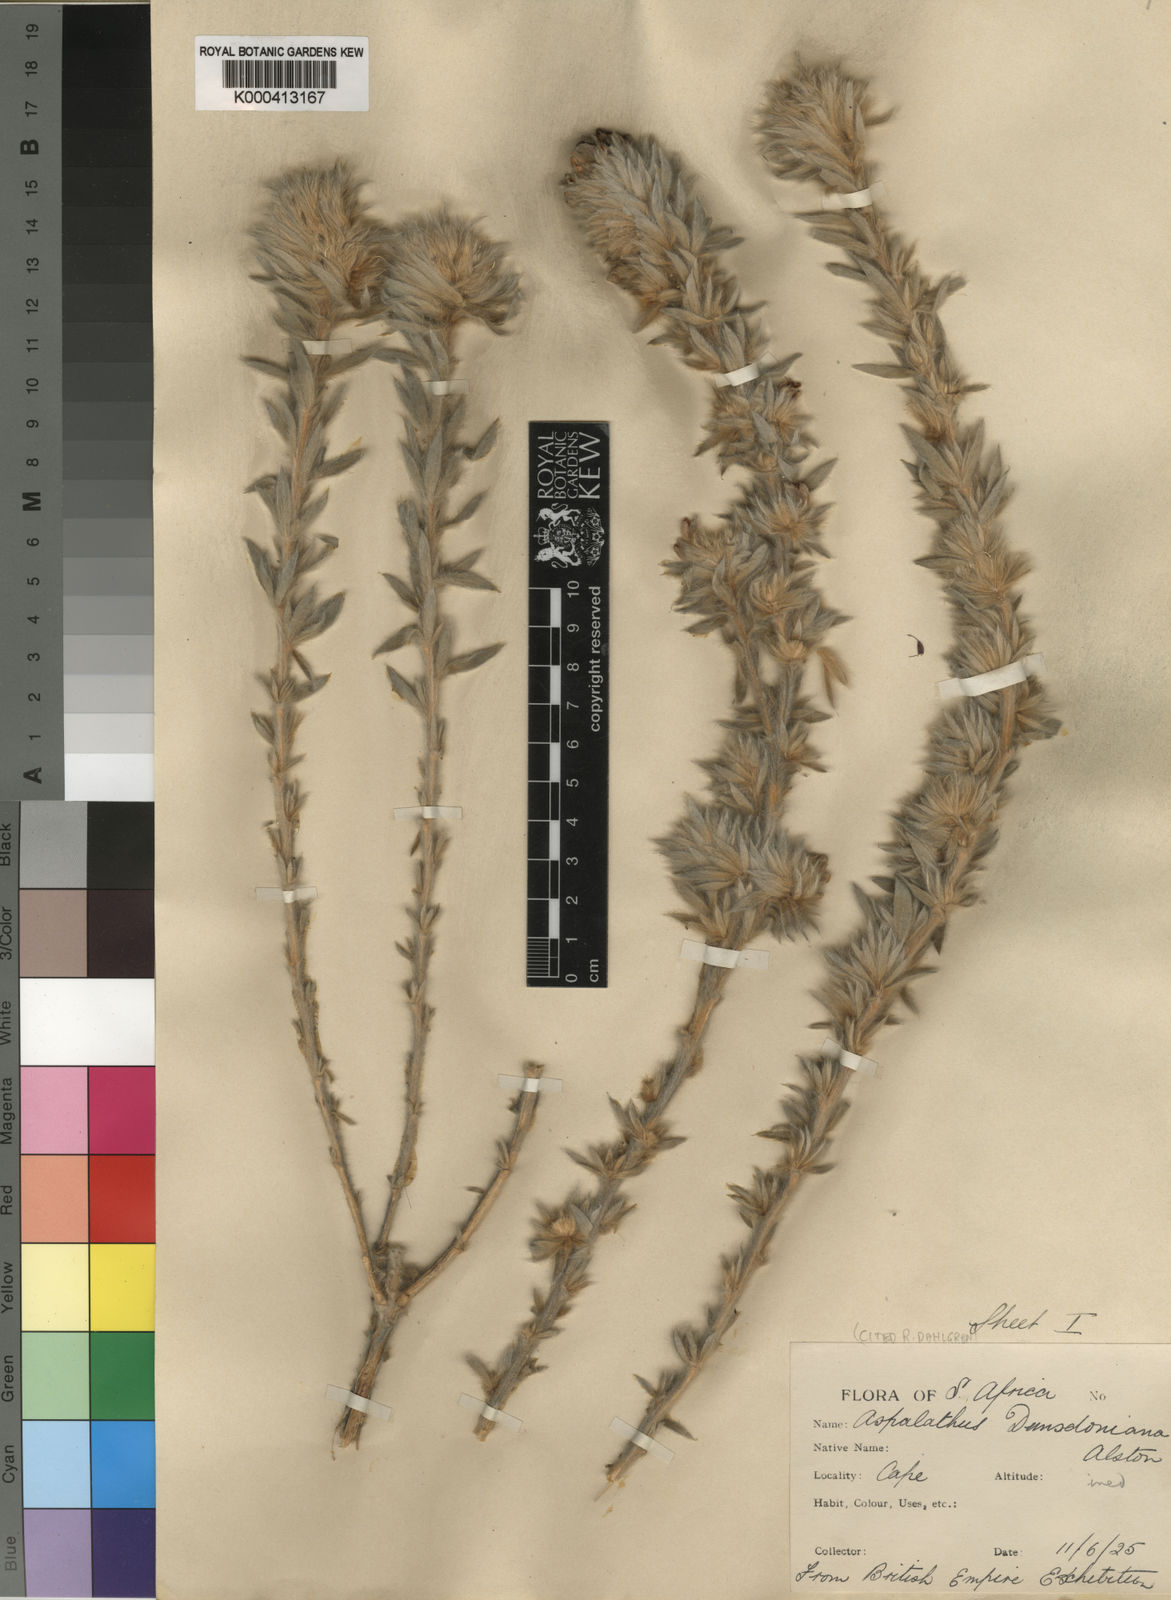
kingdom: Plantae
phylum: Tracheophyta
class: Magnoliopsida
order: Fabales
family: Fabaceae
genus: Aspalathus
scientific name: Aspalathus dunsdoniana
